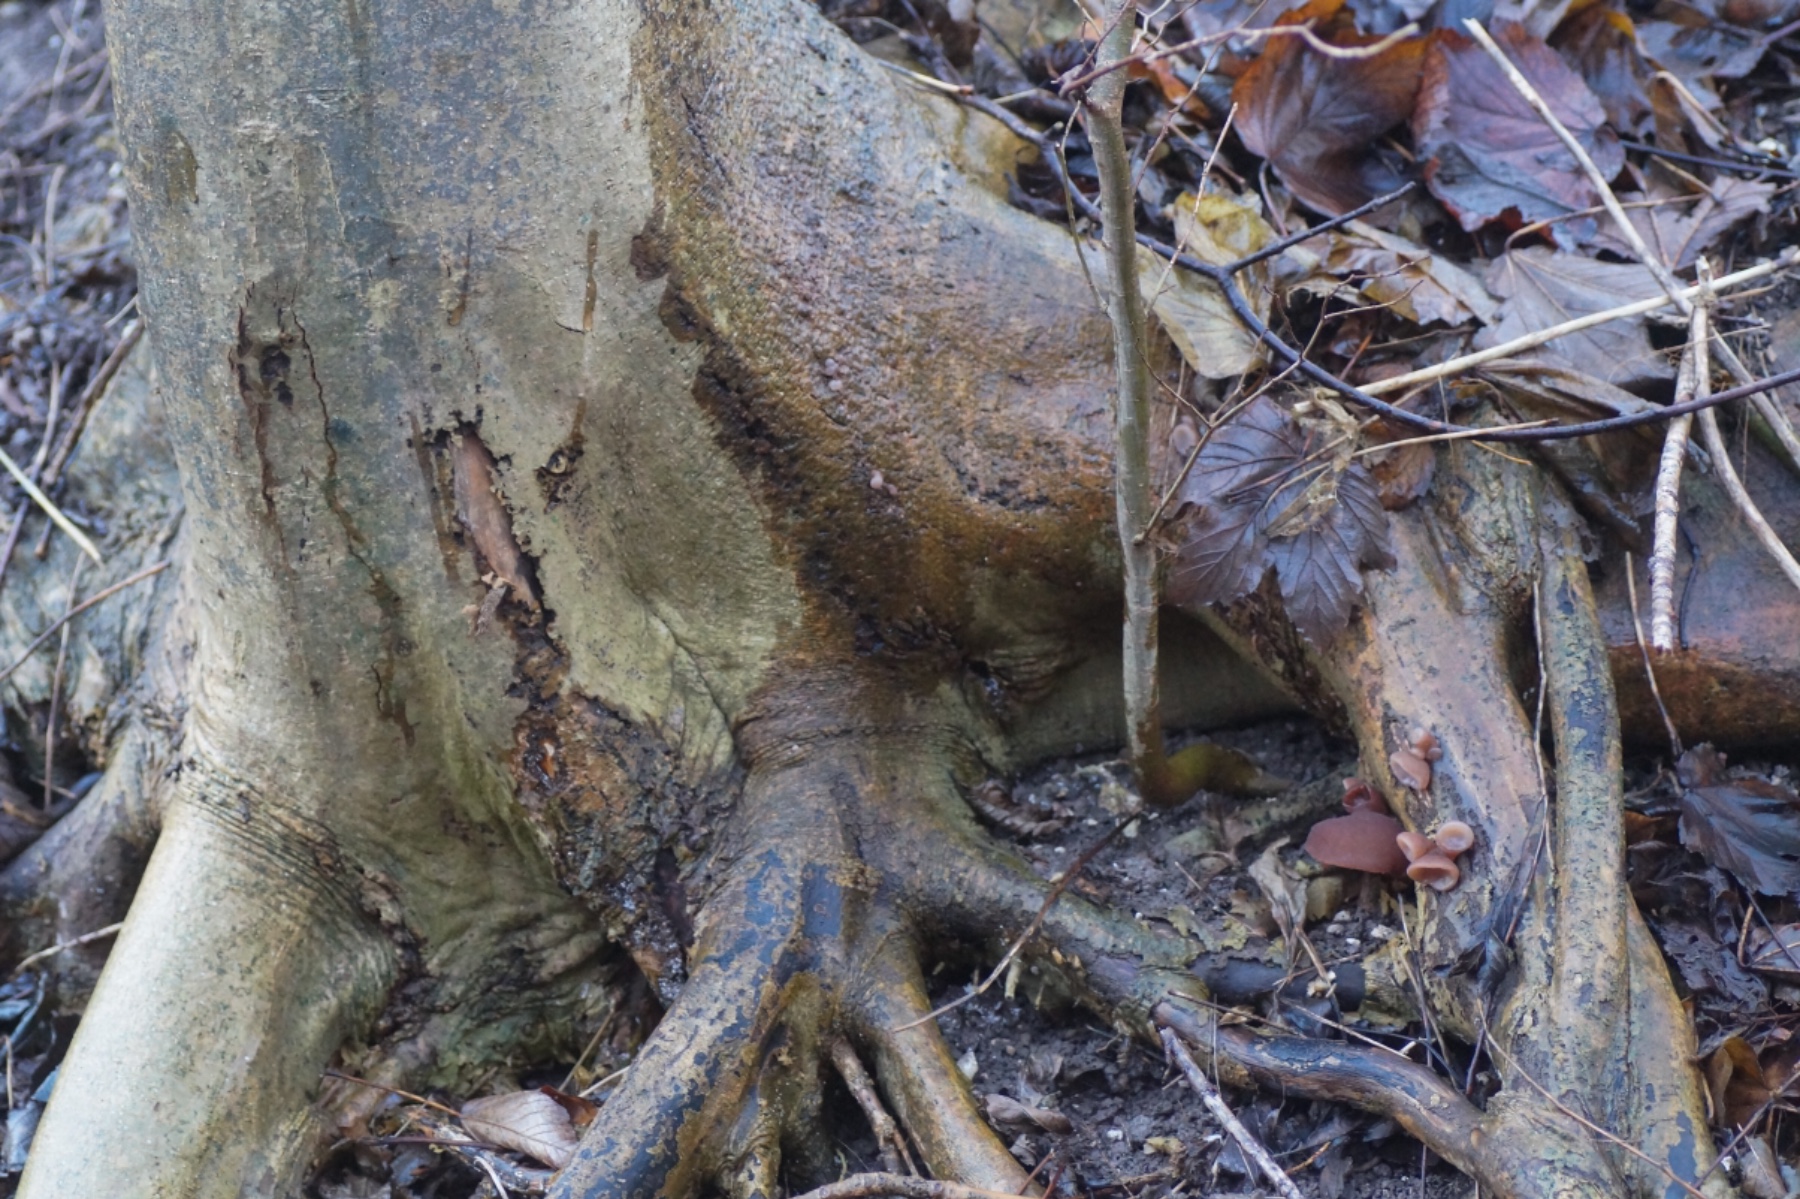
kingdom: Fungi
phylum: Basidiomycota
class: Agaricomycetes
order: Auriculariales
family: Auriculariaceae
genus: Auricularia
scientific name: Auricularia auricula-judae
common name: almindelig judasøre
